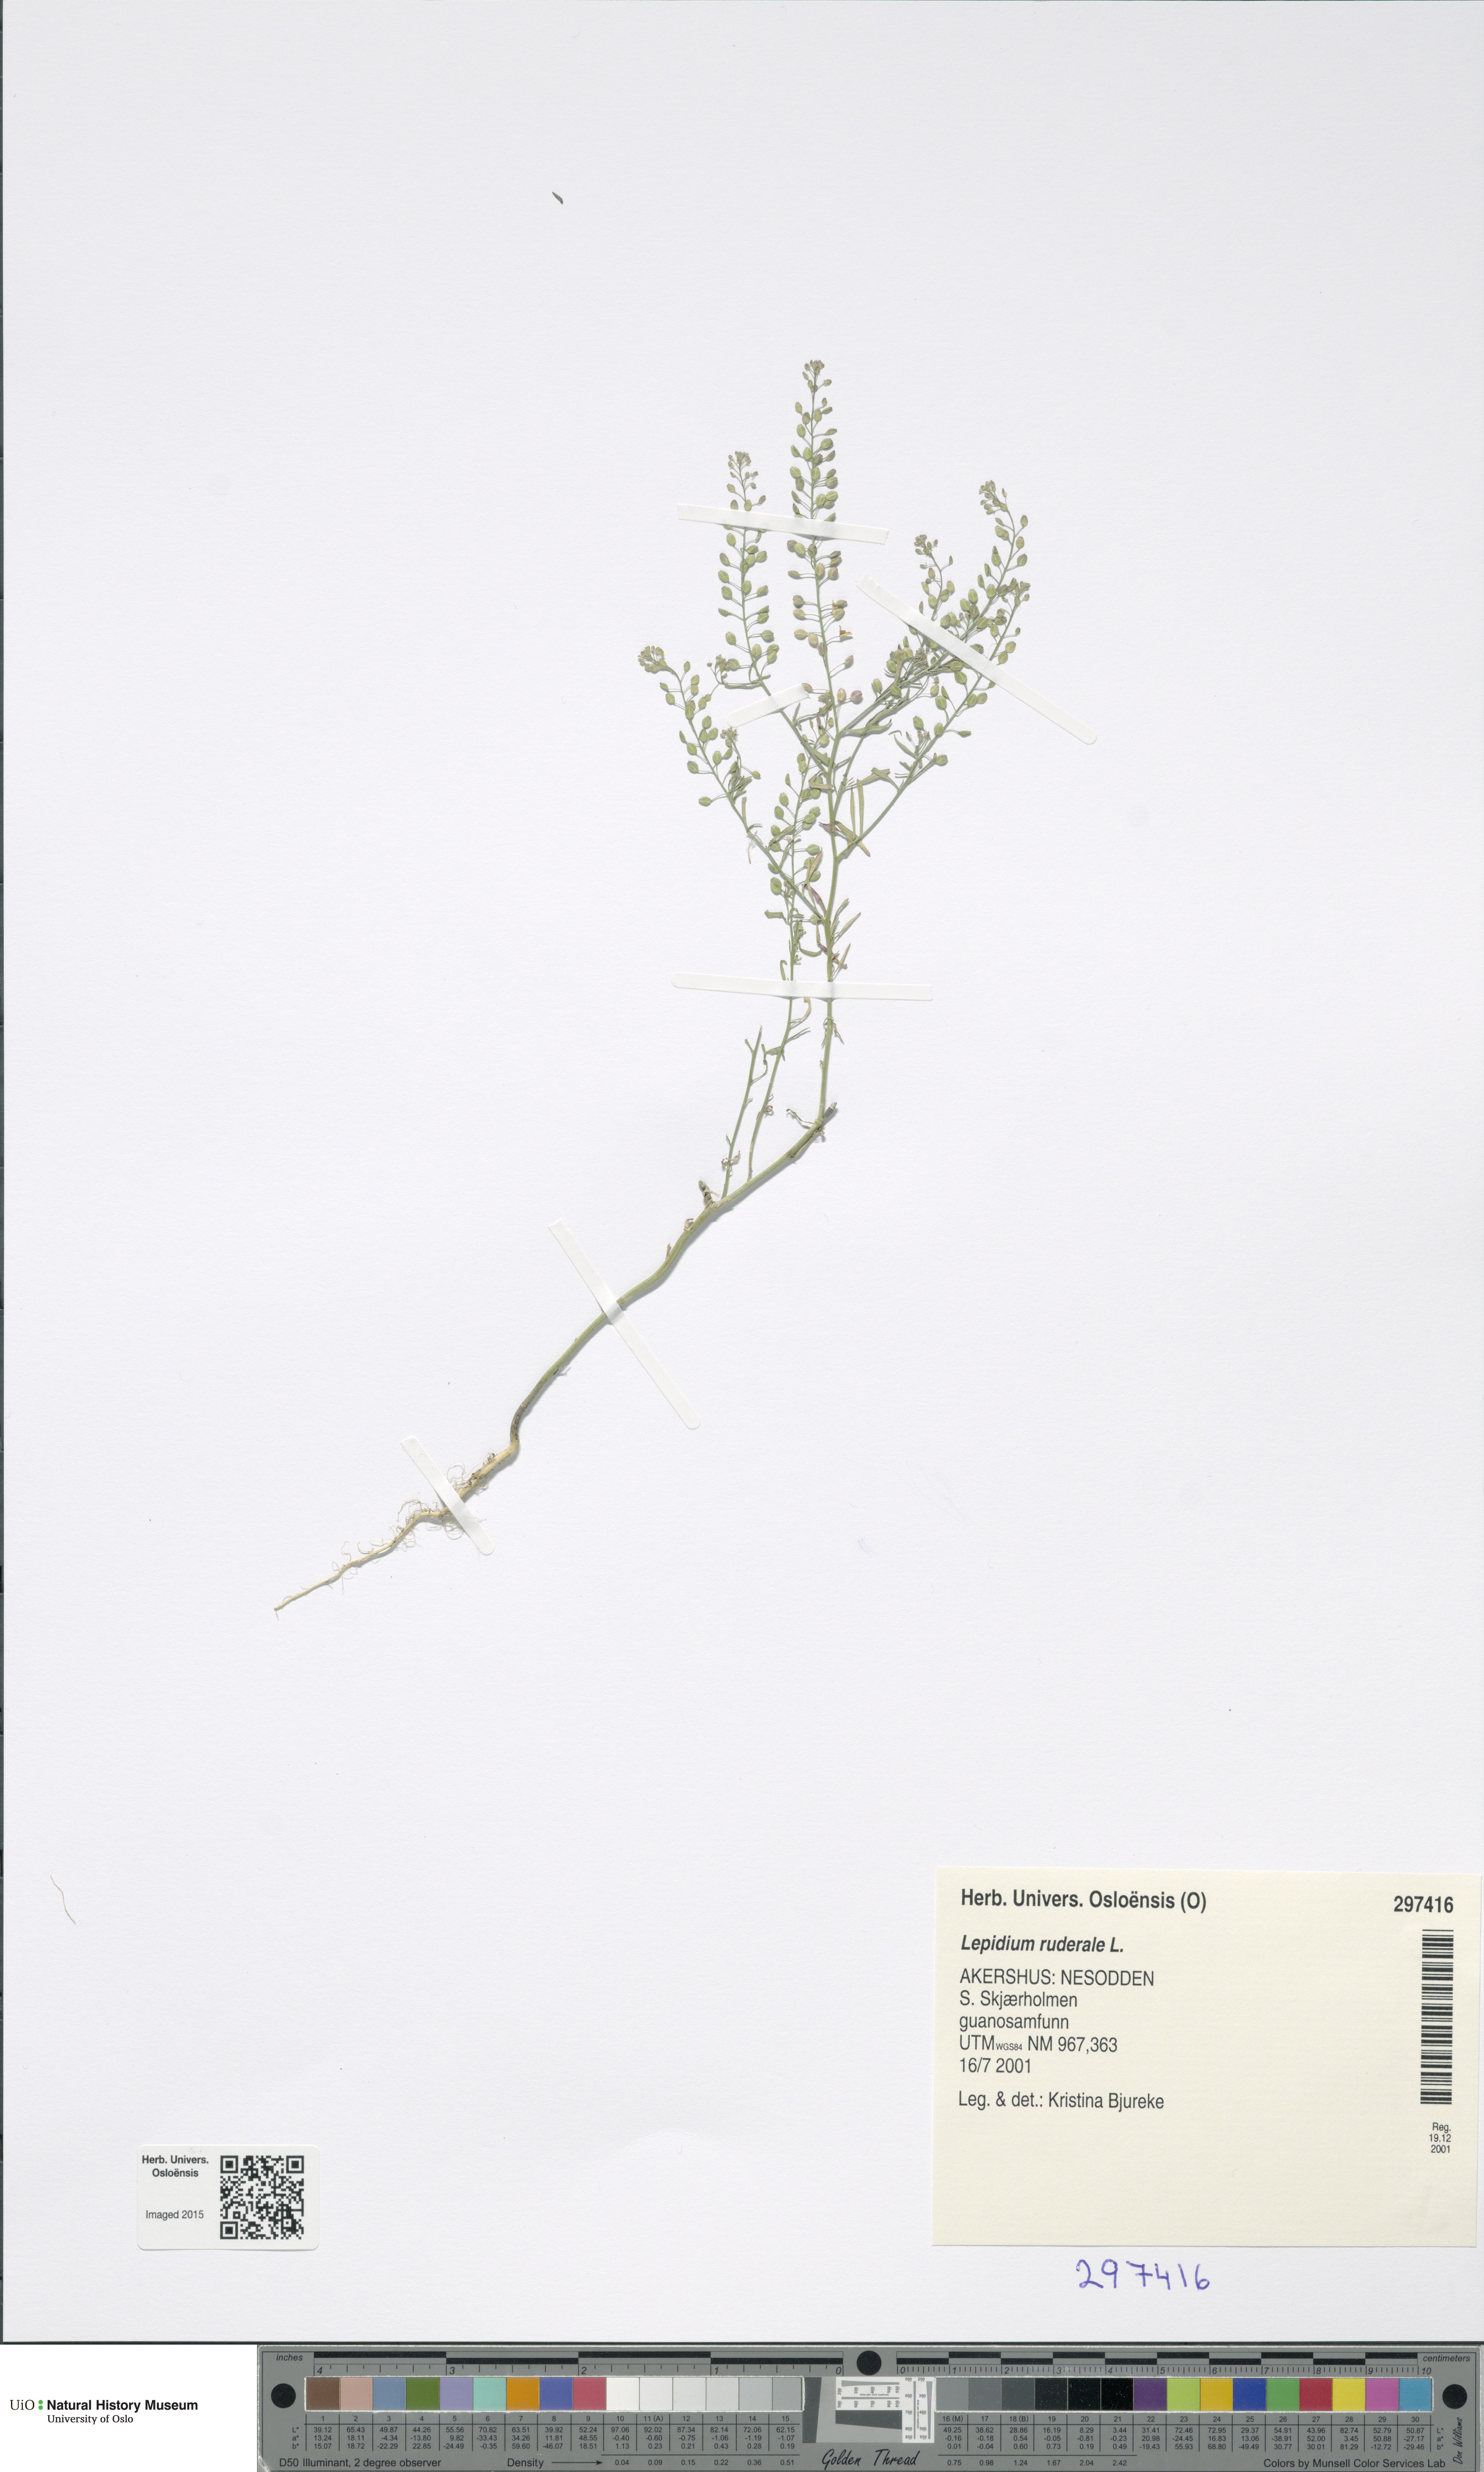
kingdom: Plantae
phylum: Tracheophyta
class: Magnoliopsida
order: Brassicales
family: Brassicaceae
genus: Lepidium
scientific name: Lepidium ruderale
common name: Narrow-leaved pepperwort
